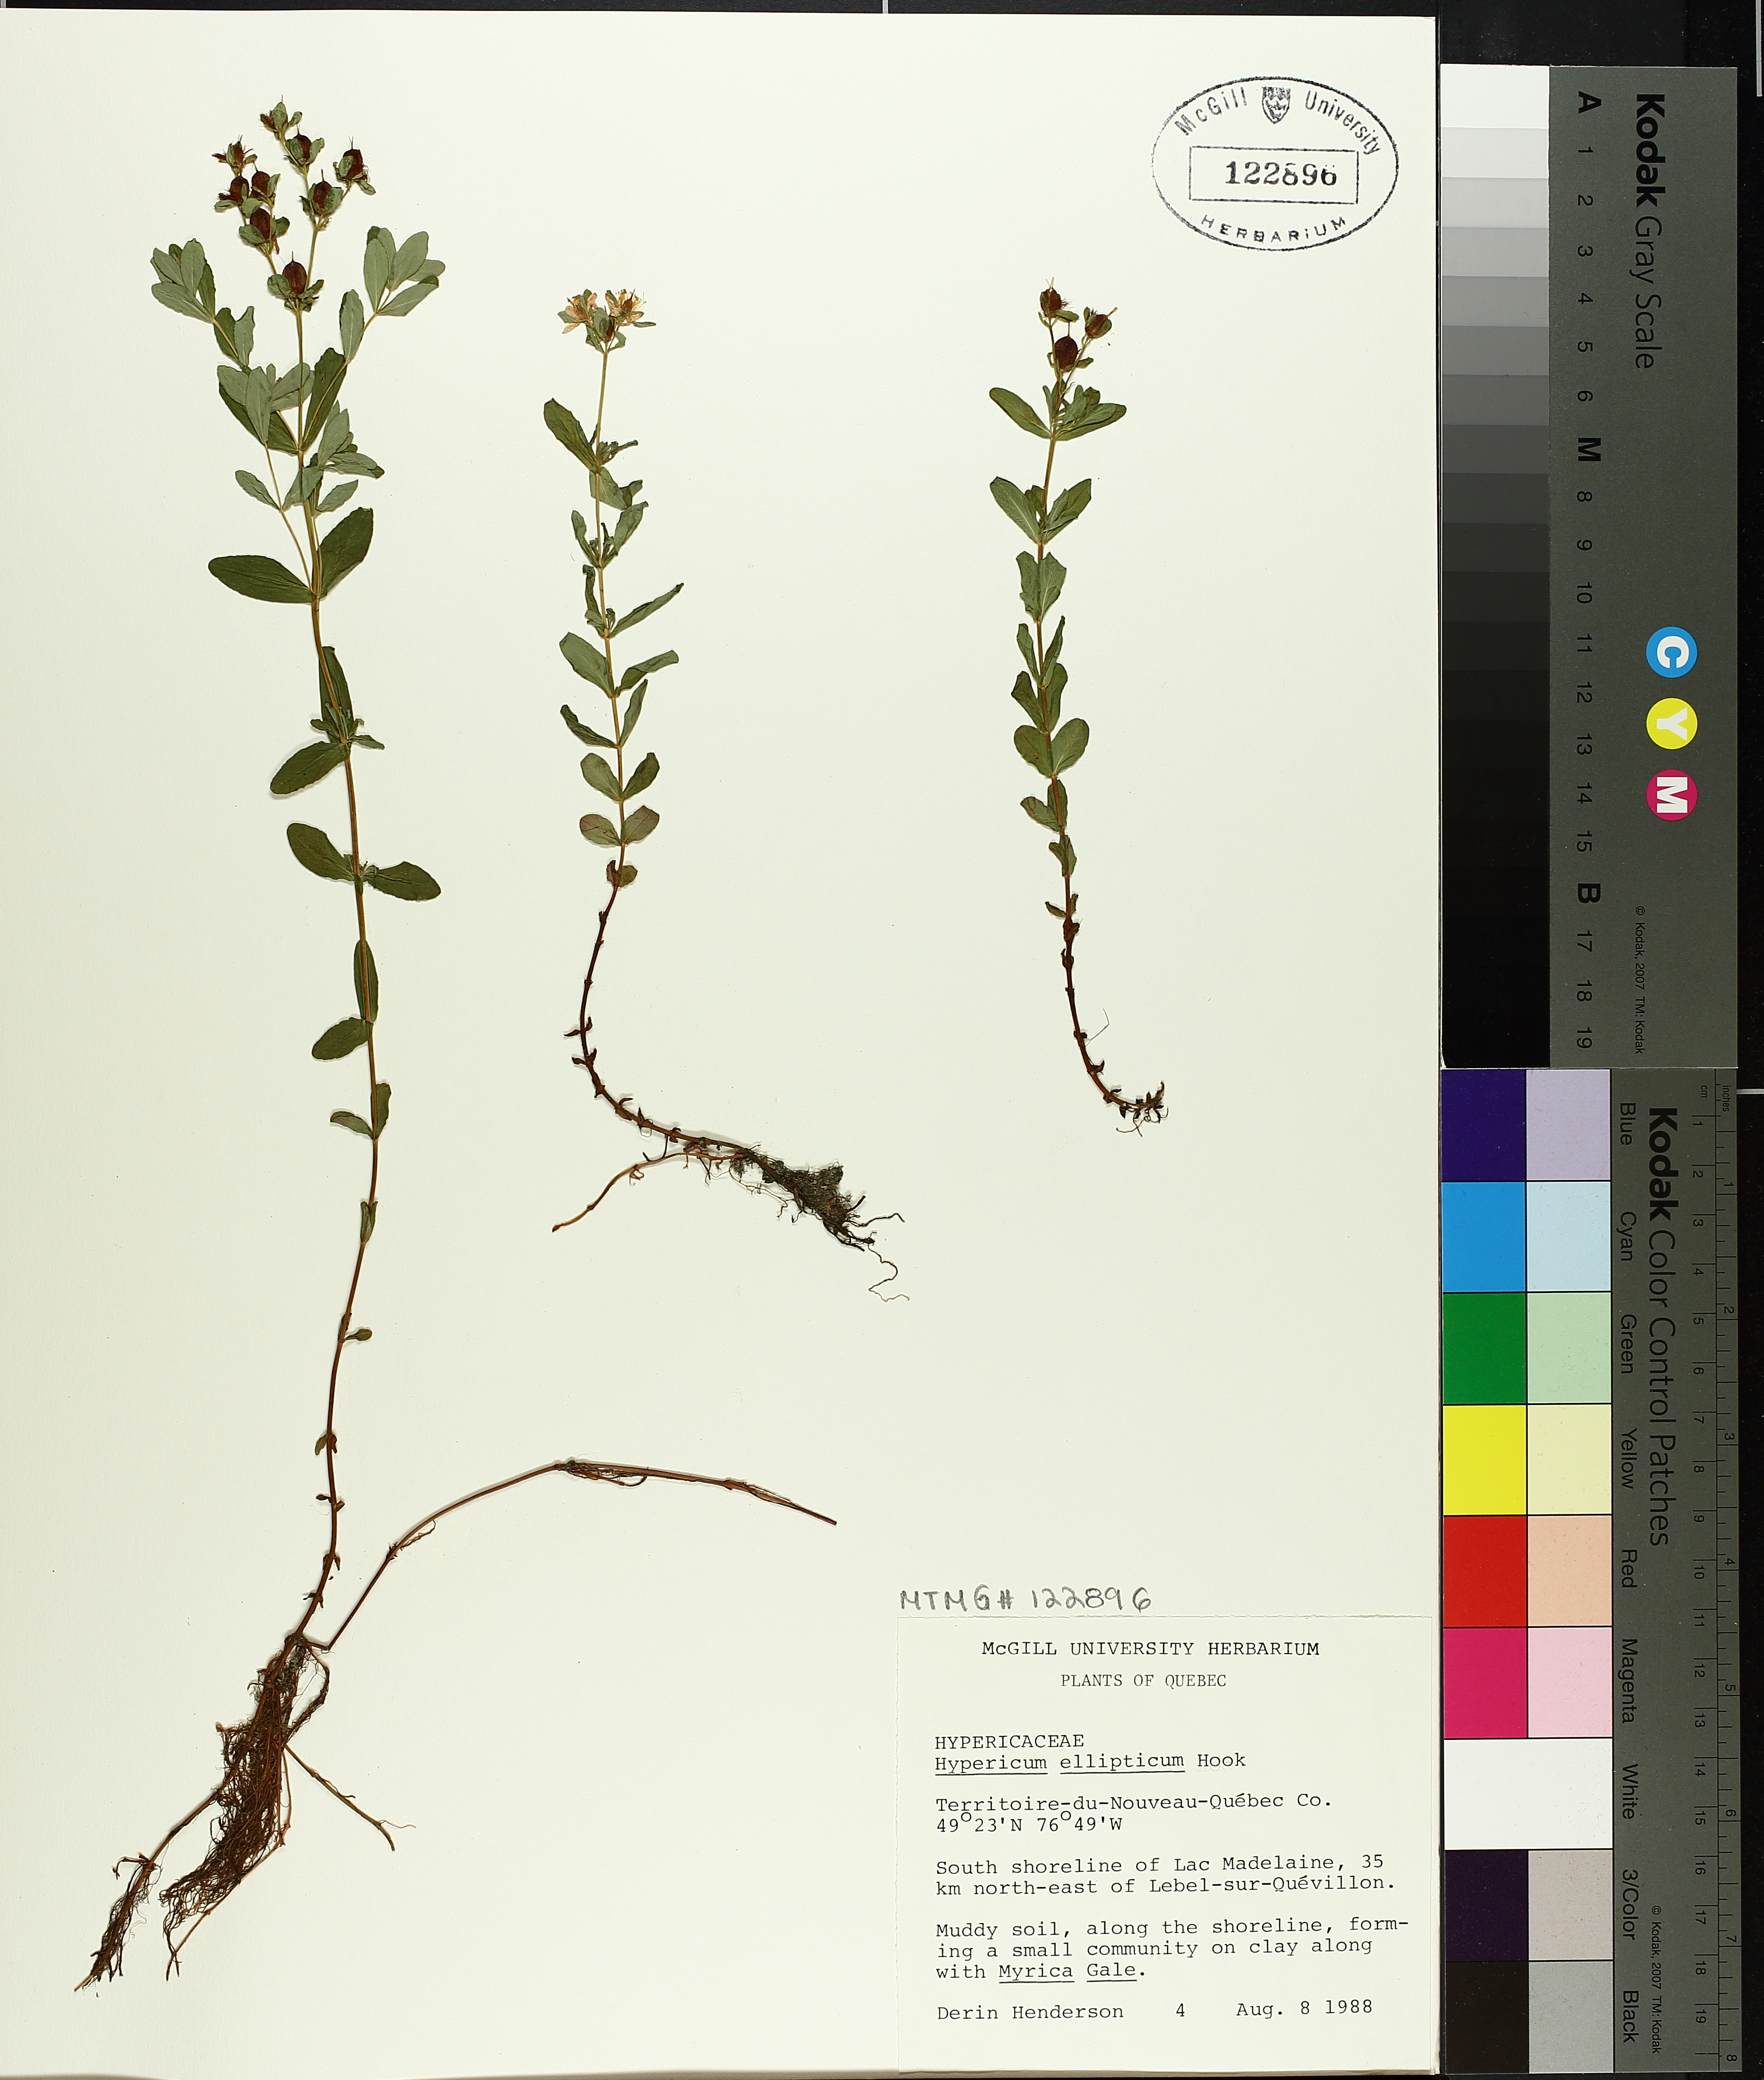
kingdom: Plantae
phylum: Tracheophyta
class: Magnoliopsida
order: Malpighiales
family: Hypericaceae
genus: Hypericum
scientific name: Hypericum ellipticum
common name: Elliptic st. john's-wort
